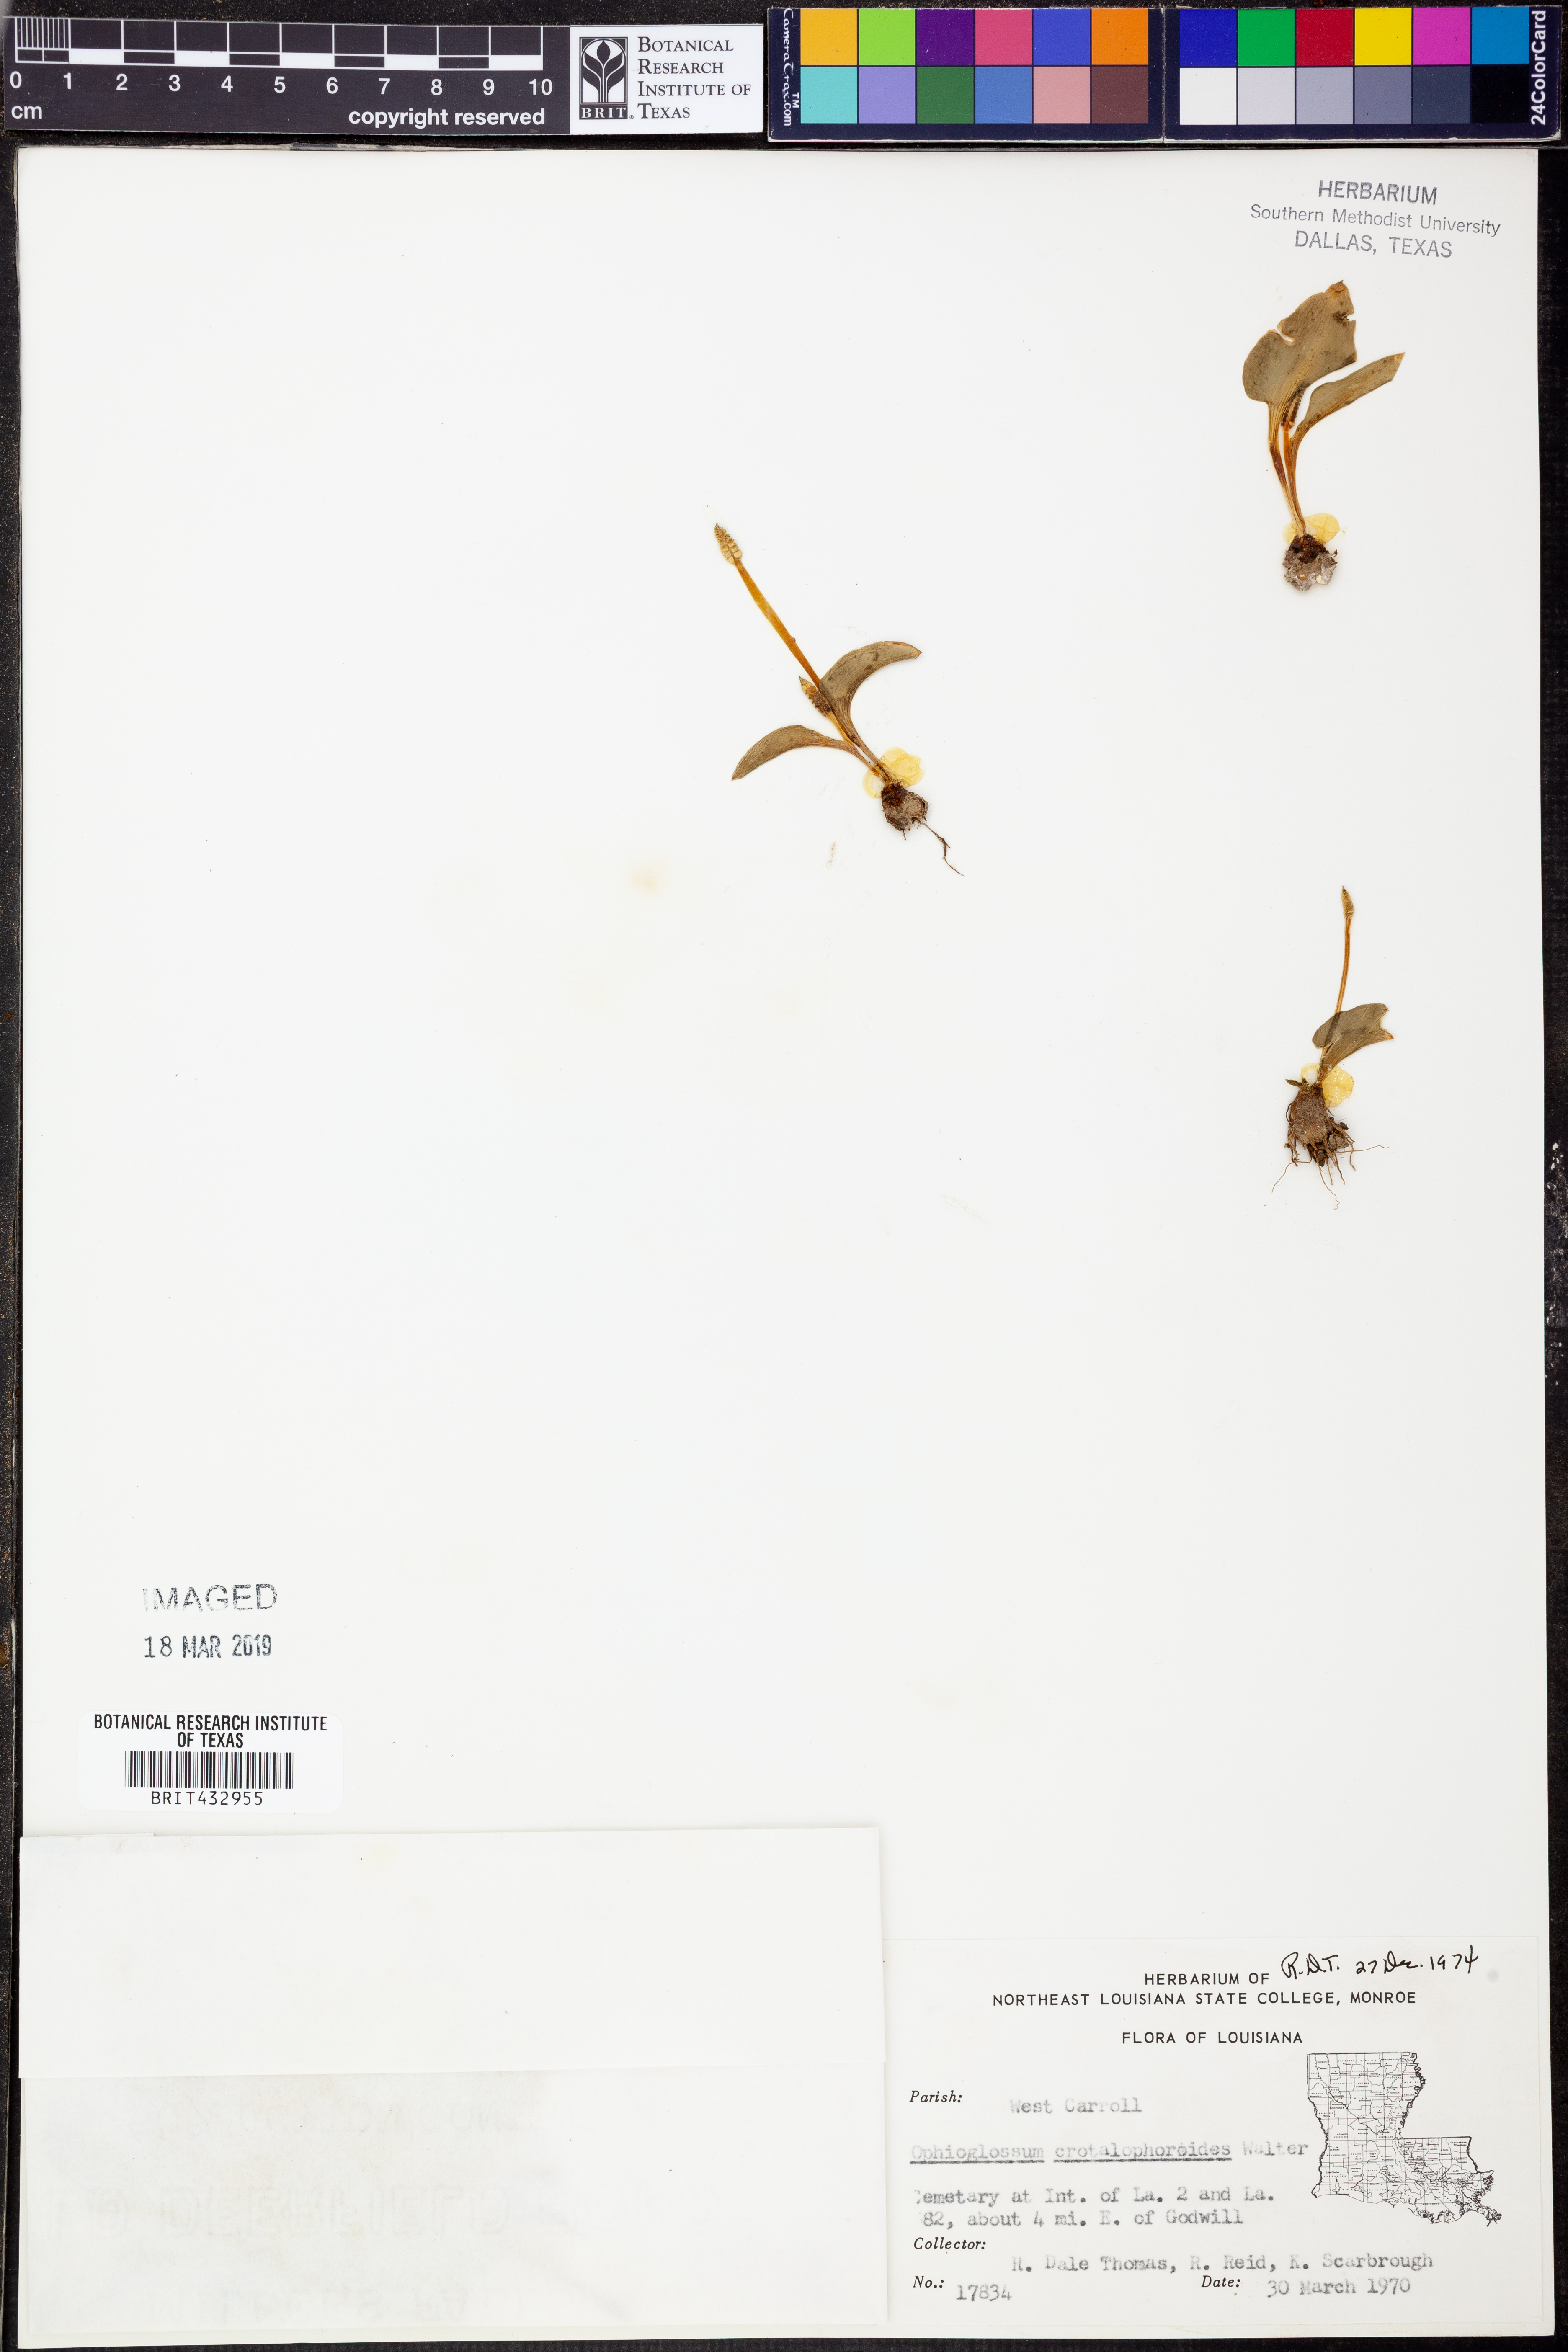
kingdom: Plantae
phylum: Tracheophyta
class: Polypodiopsida
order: Ophioglossales
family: Ophioglossaceae
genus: Ophioglossum
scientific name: Ophioglossum crotalophoroides
